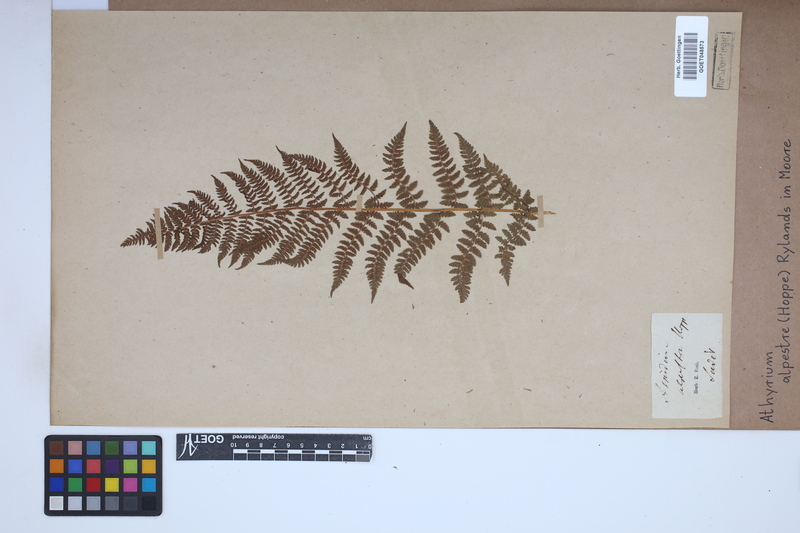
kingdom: Plantae
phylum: Tracheophyta
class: Polypodiopsida
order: Polypodiales
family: Athyriaceae
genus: Pseudathyrium
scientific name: Pseudathyrium alpestre
